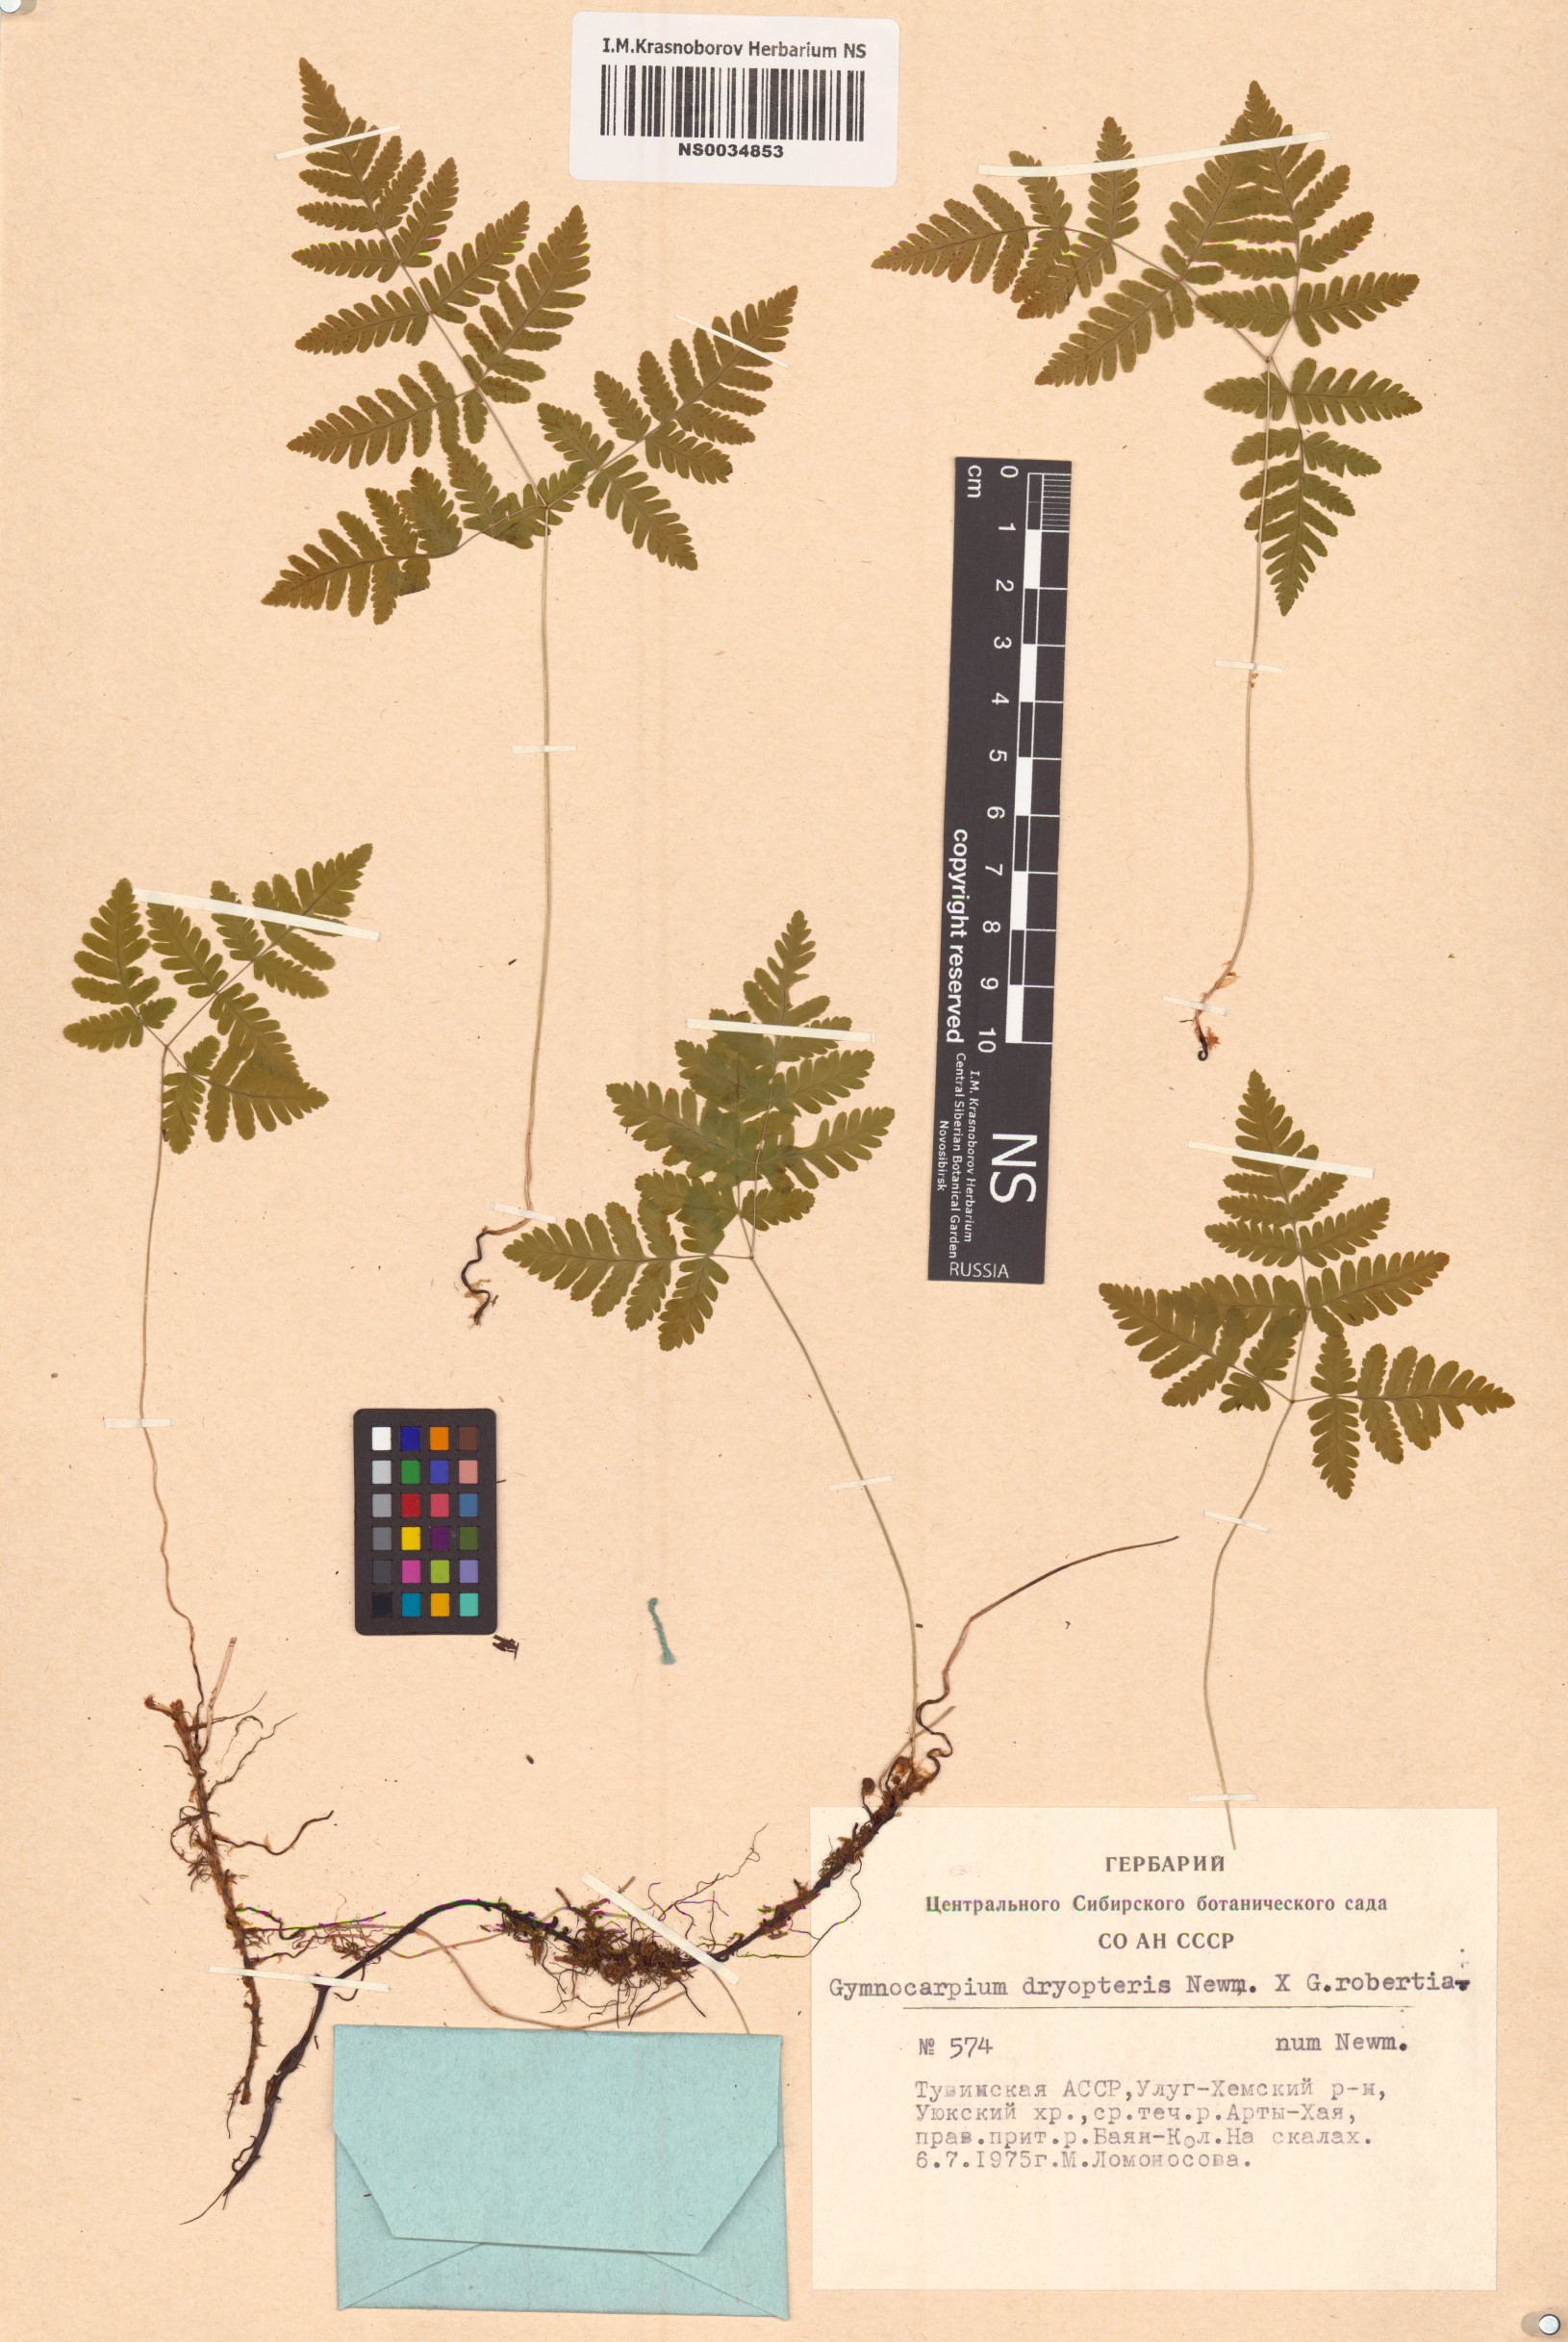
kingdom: Plantae
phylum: Tracheophyta
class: Polypodiopsida
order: Polypodiales
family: Cystopteridaceae
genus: Gymnocarpium
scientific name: Gymnocarpium dryopteris
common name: Oak fern
